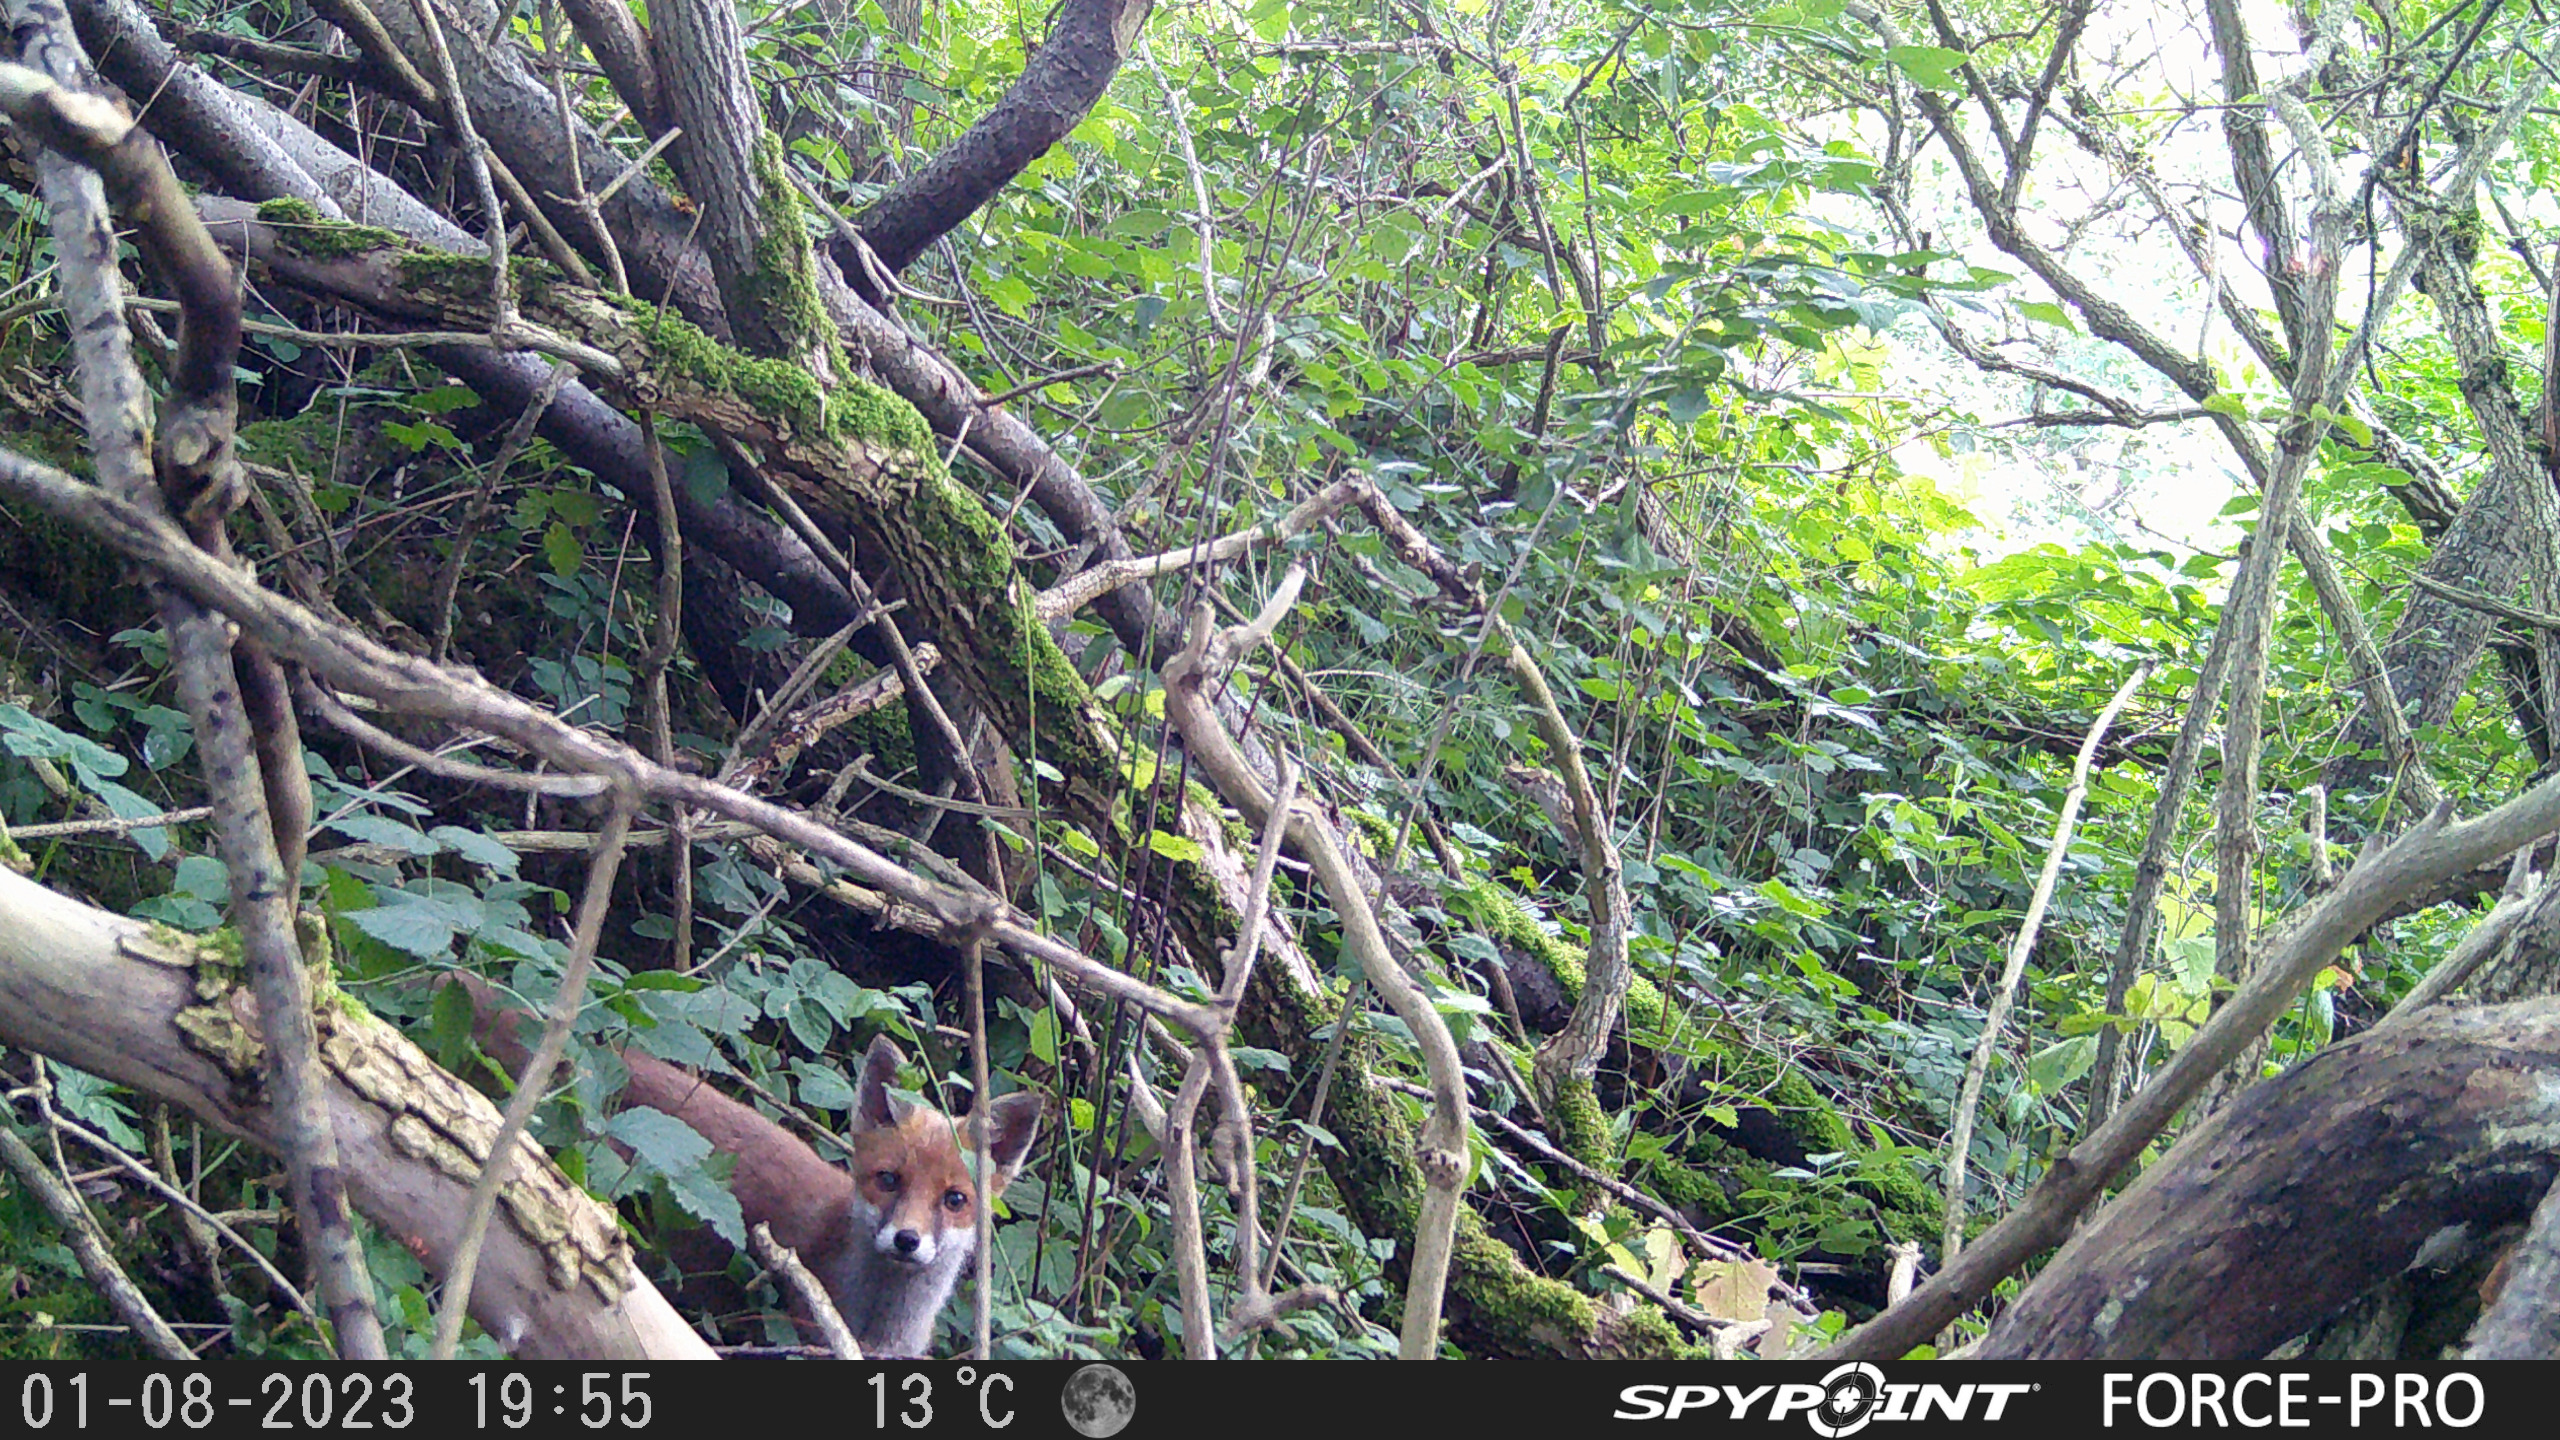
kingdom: Animalia
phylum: Chordata
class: Mammalia
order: Carnivora
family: Canidae
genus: Vulpes
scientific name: Vulpes vulpes
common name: Ræv
